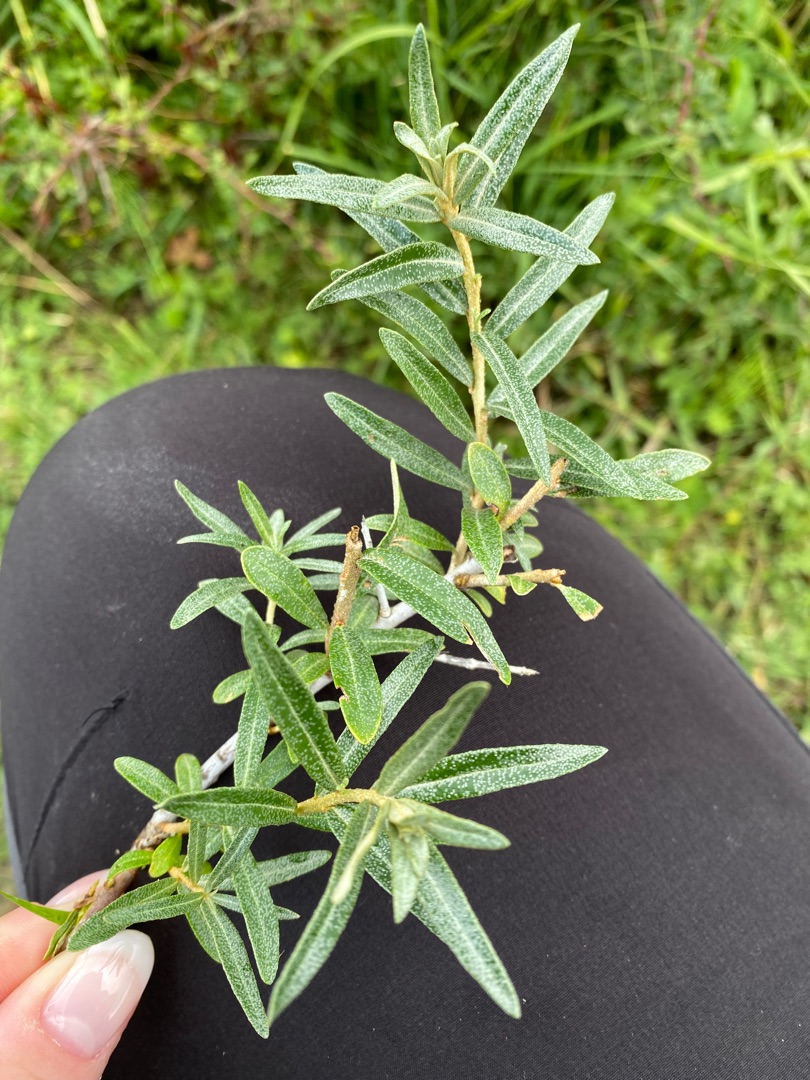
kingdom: Plantae
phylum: Tracheophyta
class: Magnoliopsida
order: Rosales
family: Elaeagnaceae
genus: Hippophae
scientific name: Hippophae rhamnoides
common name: Havtorn
